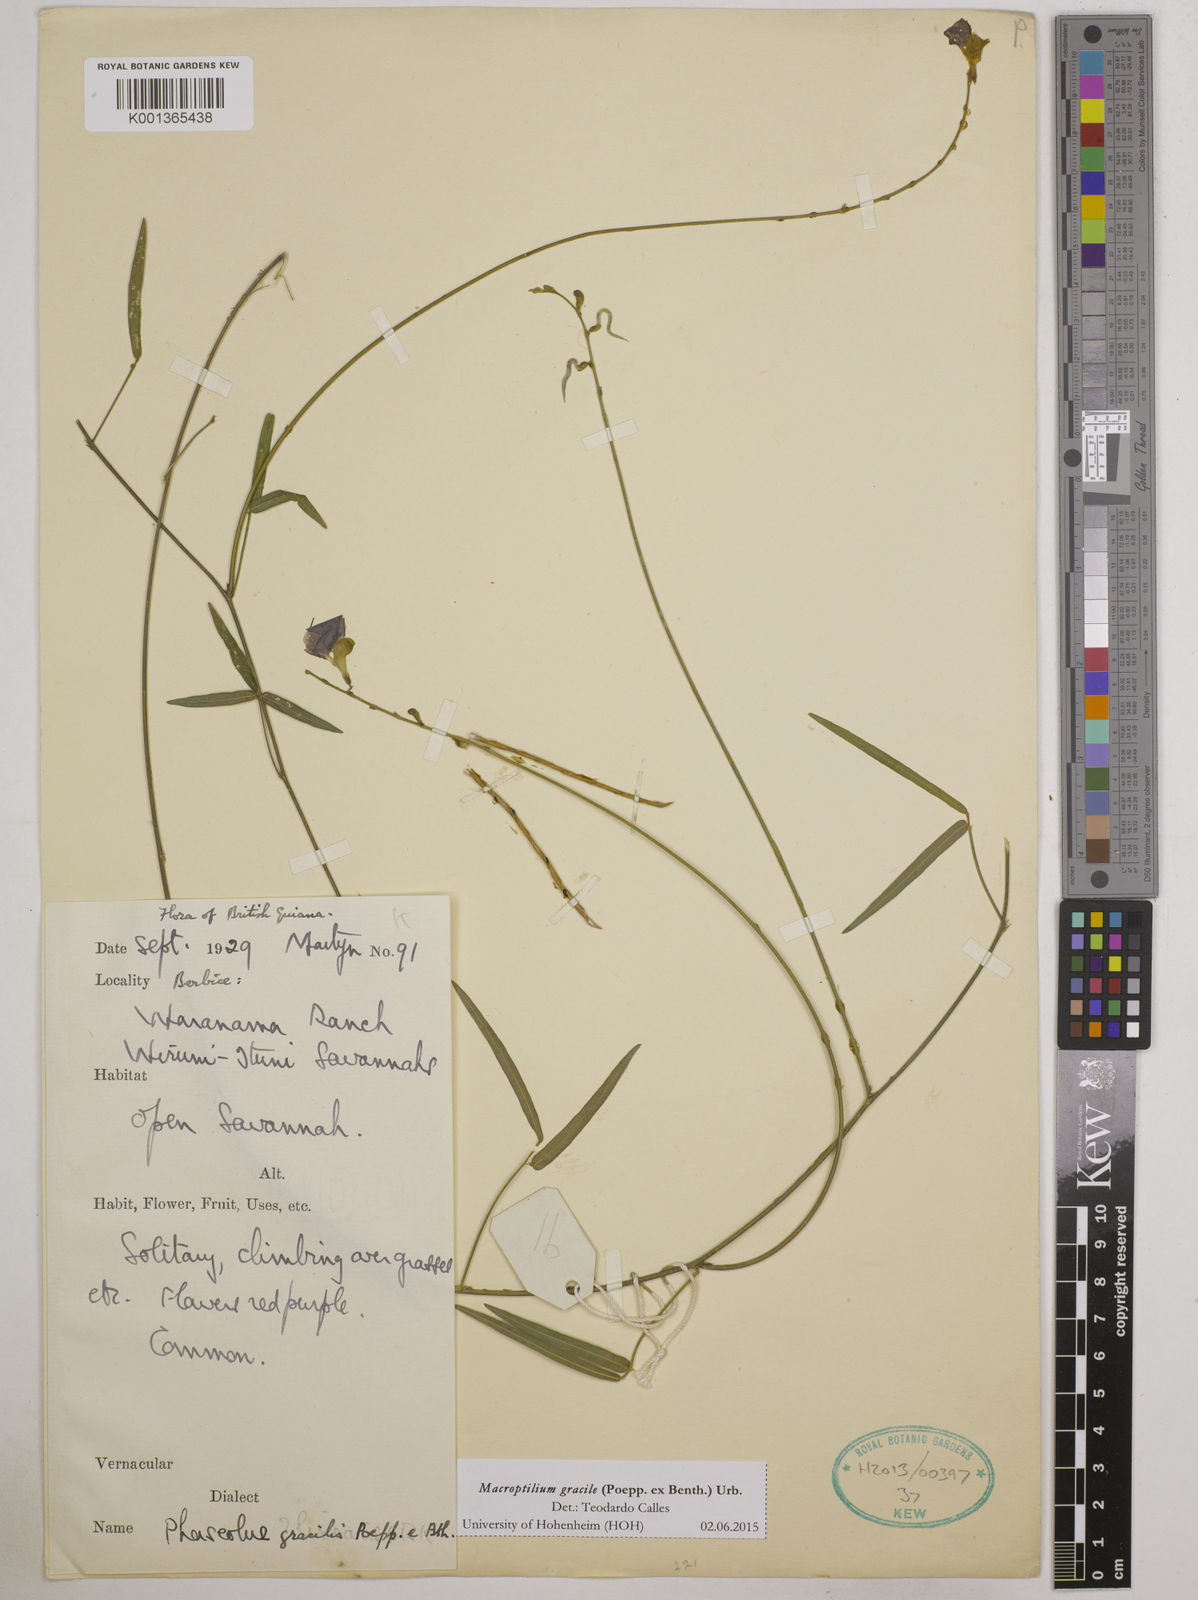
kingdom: Plantae
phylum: Tracheophyta
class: Magnoliopsida
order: Fabales
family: Fabaceae
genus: Macroptilium
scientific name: Macroptilium gracile
